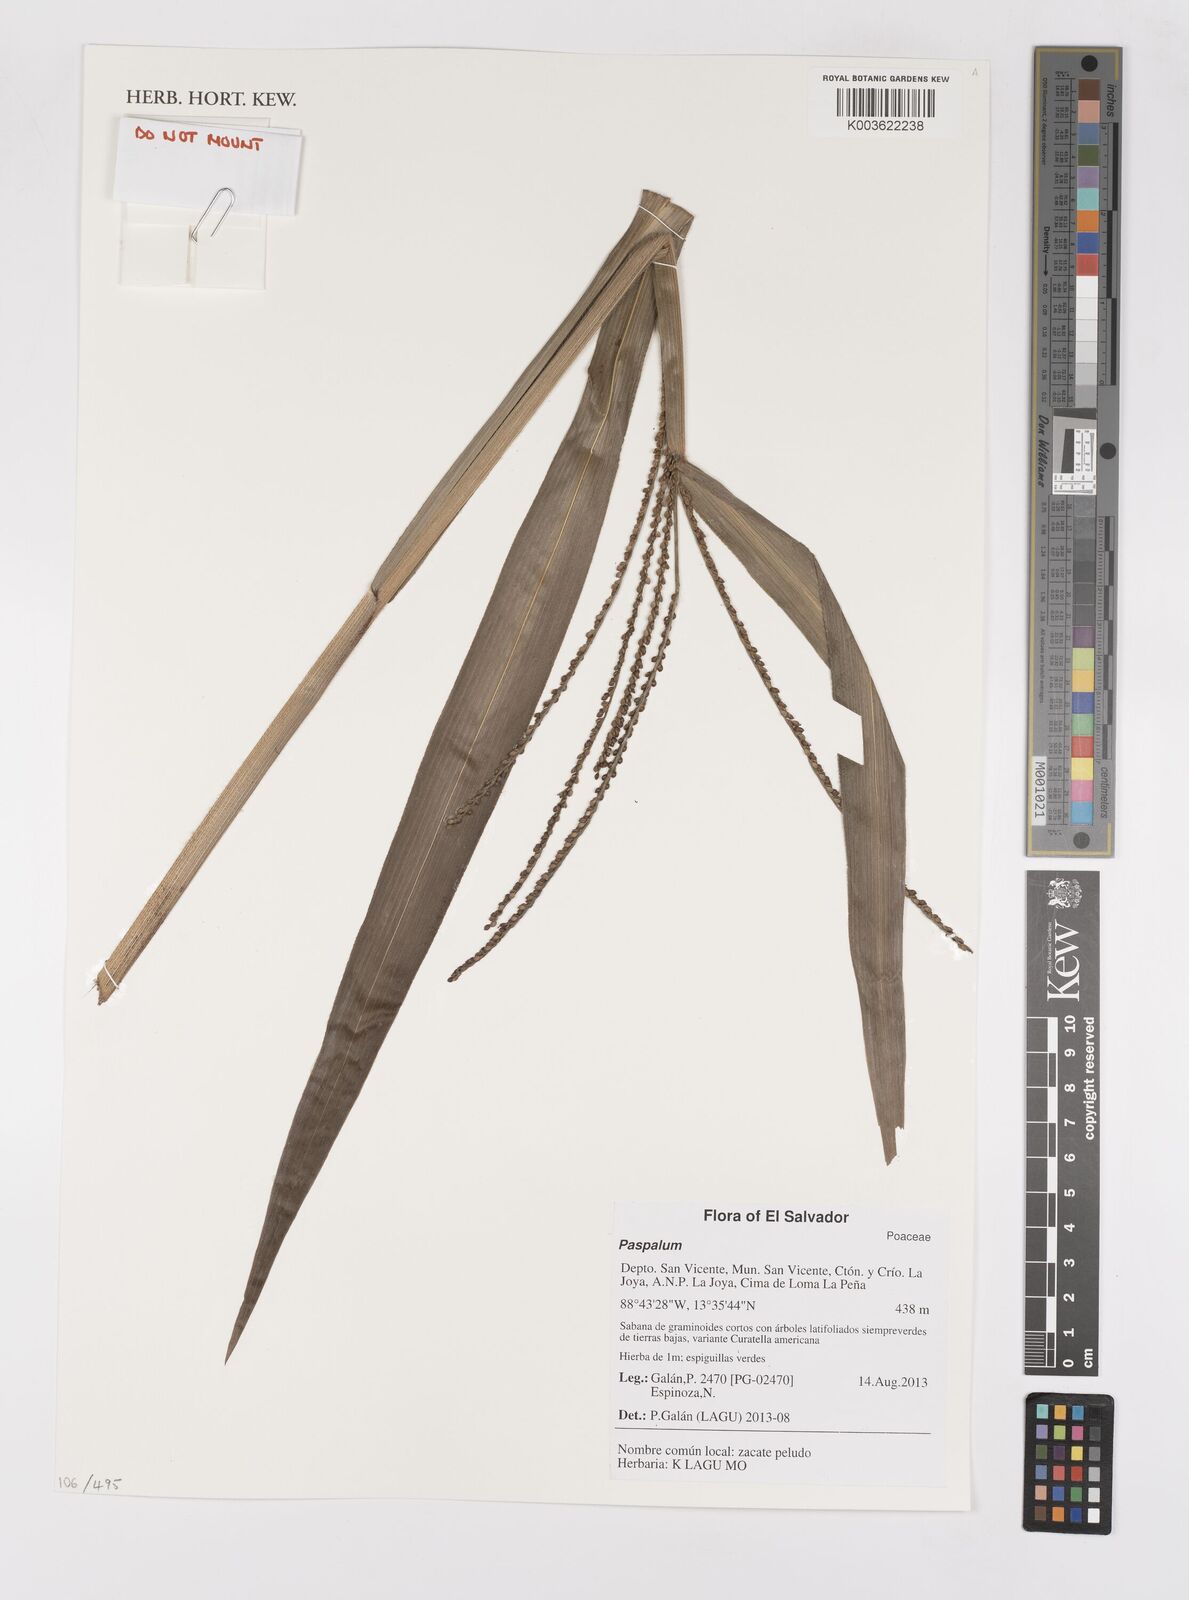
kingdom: Plantae
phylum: Tracheophyta
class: Liliopsida
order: Poales
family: Poaceae
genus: Paspalum
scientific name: Paspalum
